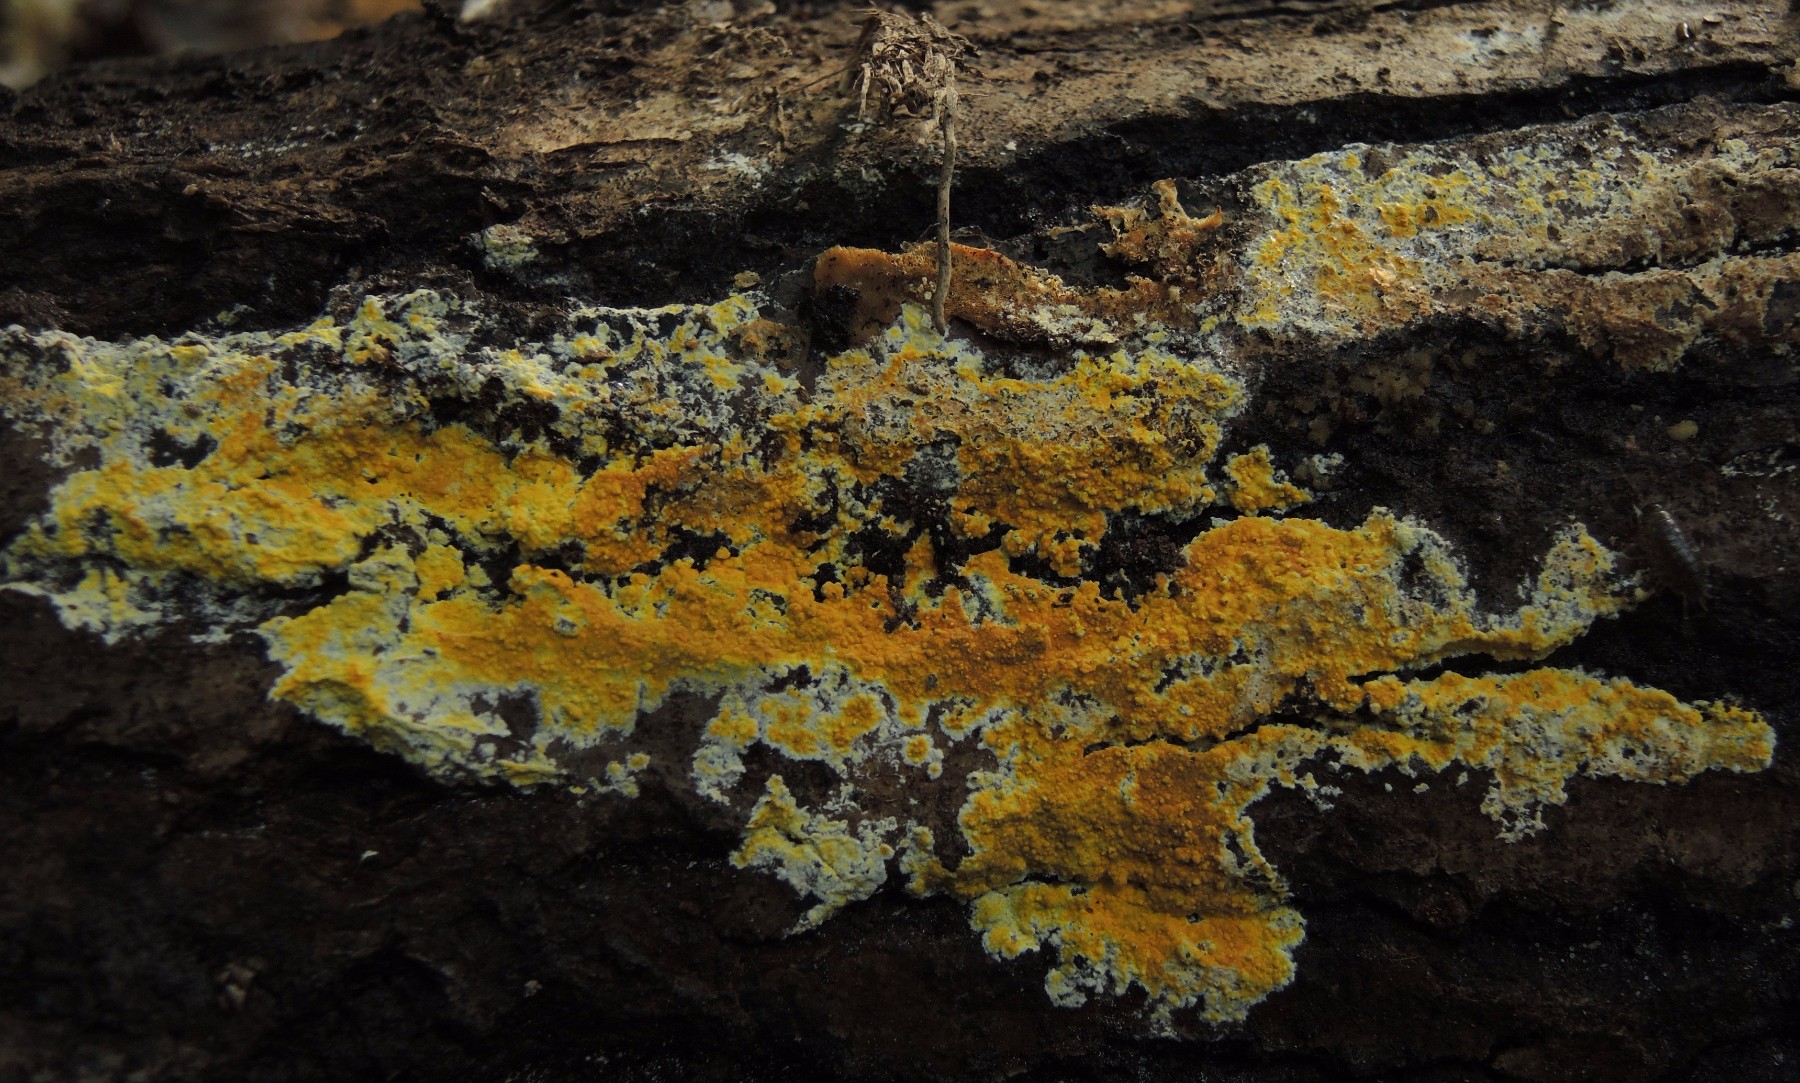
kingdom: Fungi
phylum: Basidiomycota
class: Agaricomycetes
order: Polyporales
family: Meruliaceae
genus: Phlebiodontia
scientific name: Phlebiodontia subochracea
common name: svovl-åresvamp
